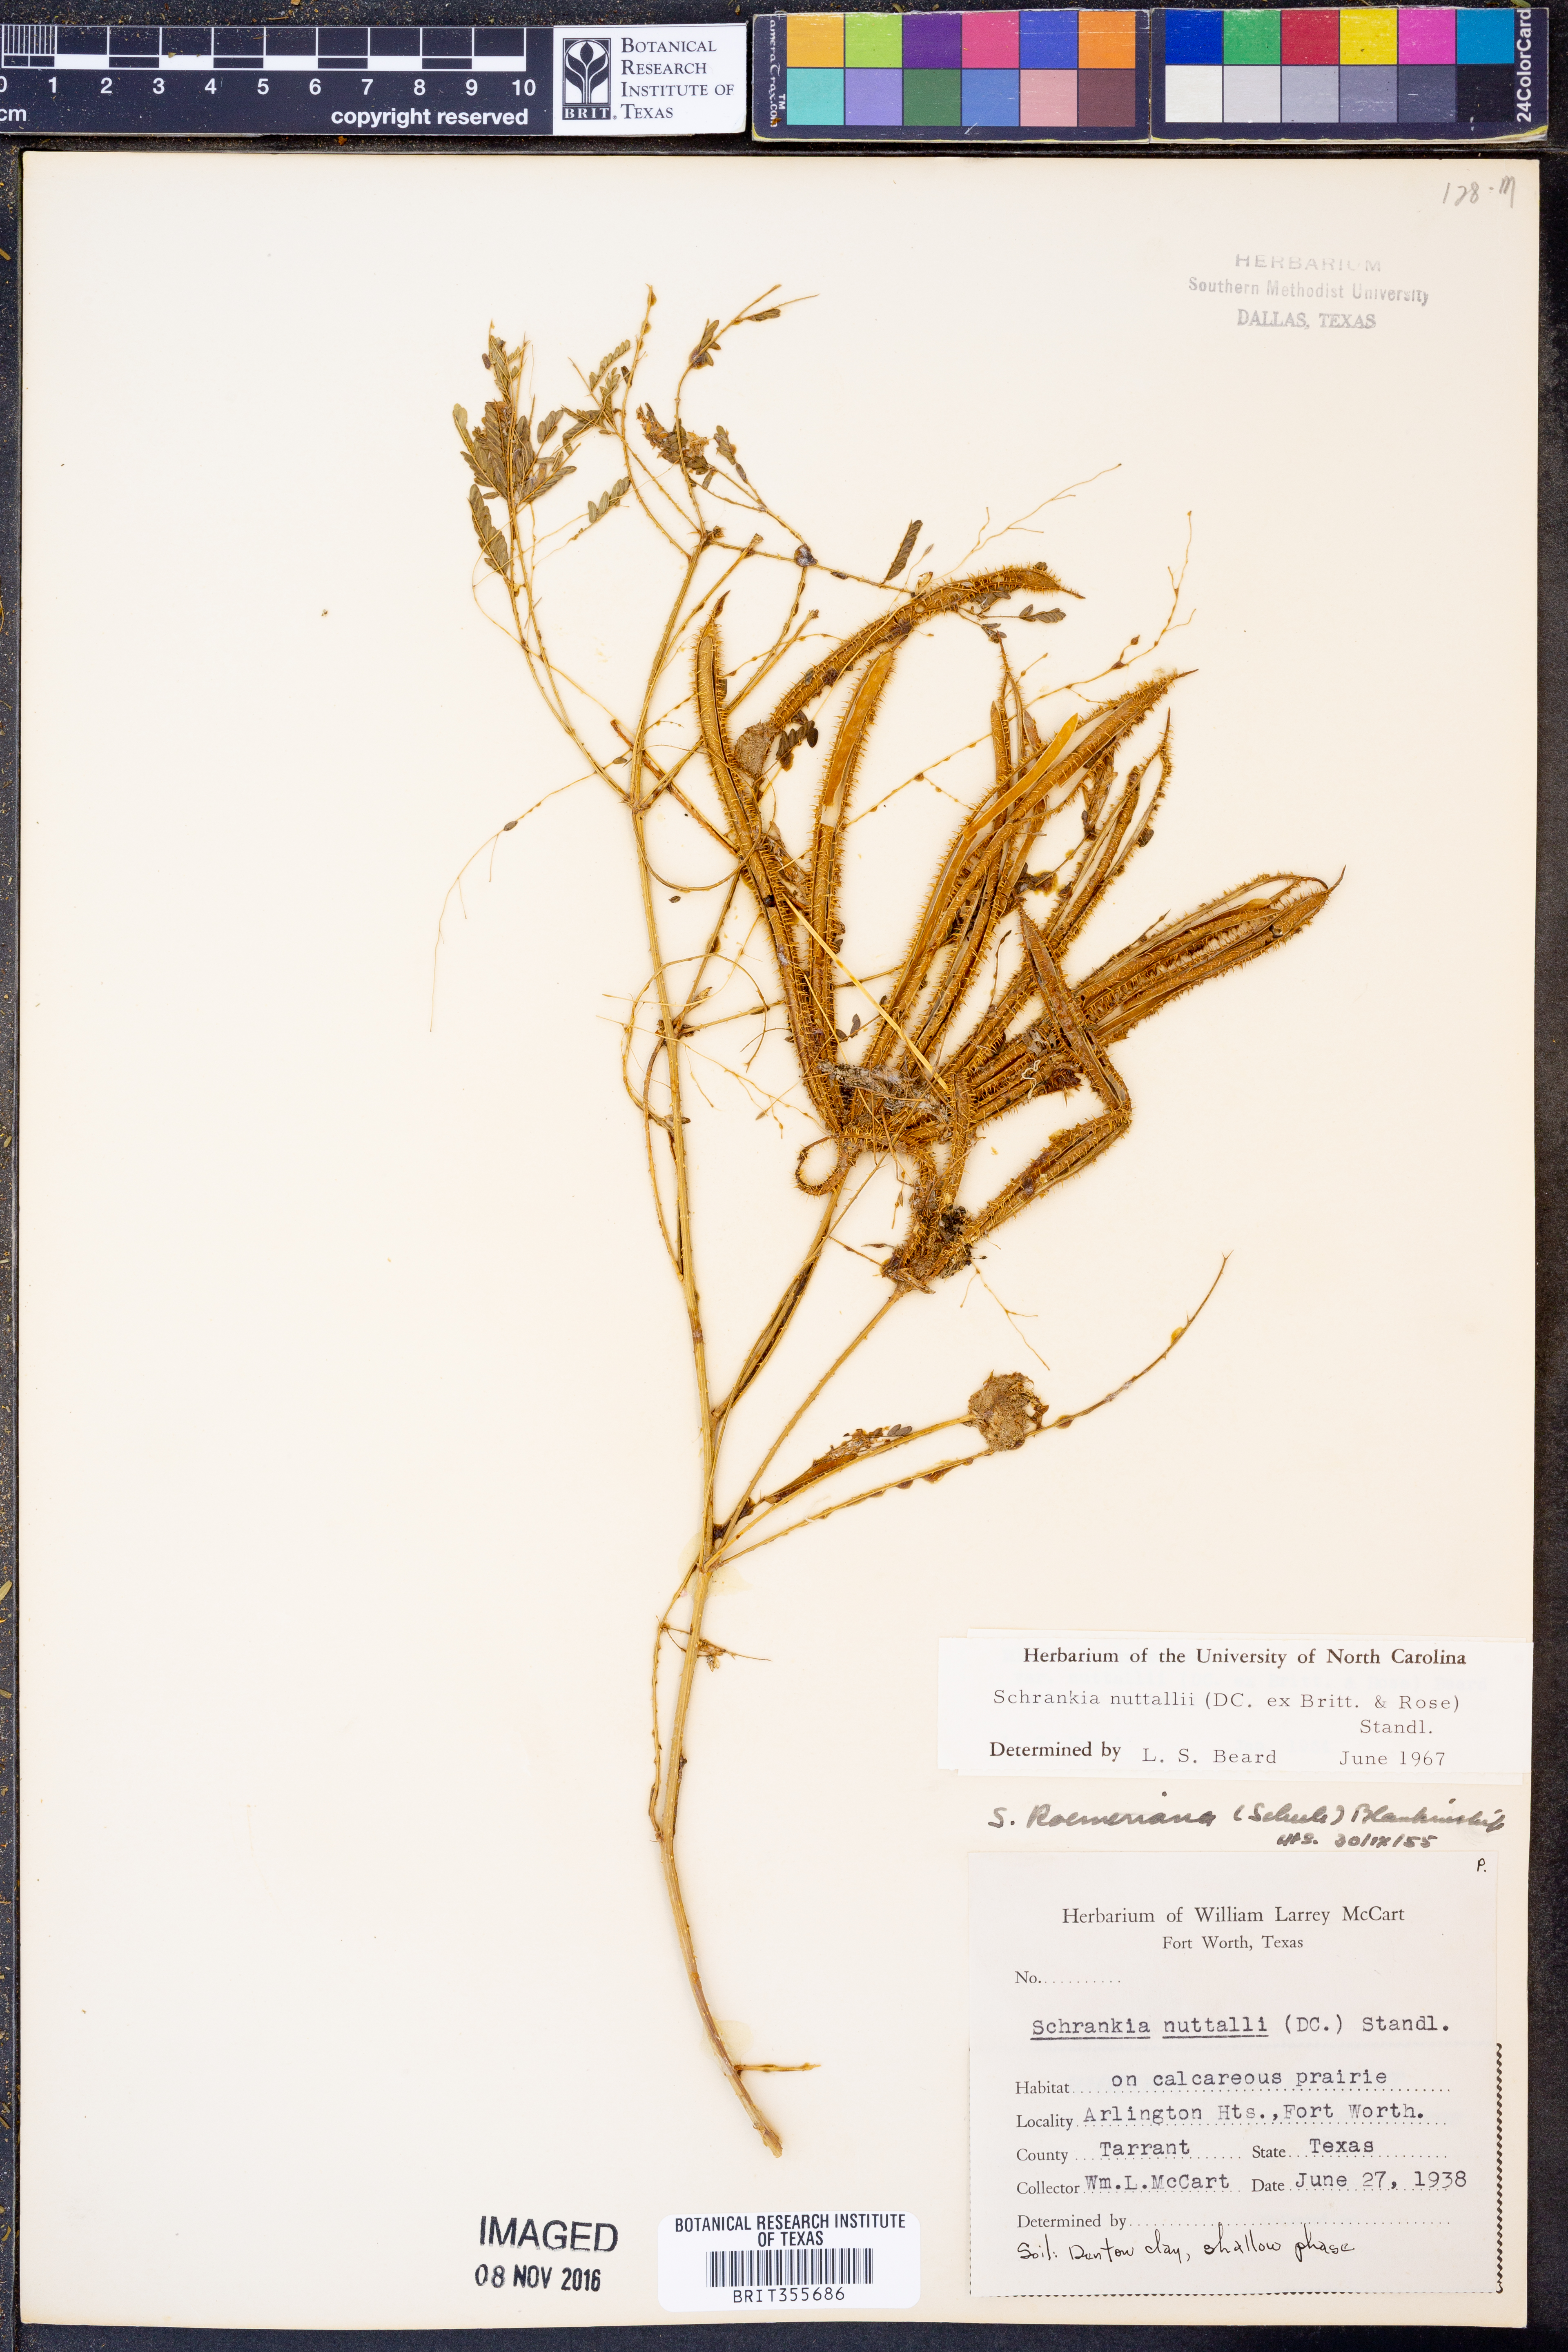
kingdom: Plantae
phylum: Tracheophyta
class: Magnoliopsida
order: Fabales
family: Fabaceae
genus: Mimosa
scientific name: Mimosa quadrivalvis
